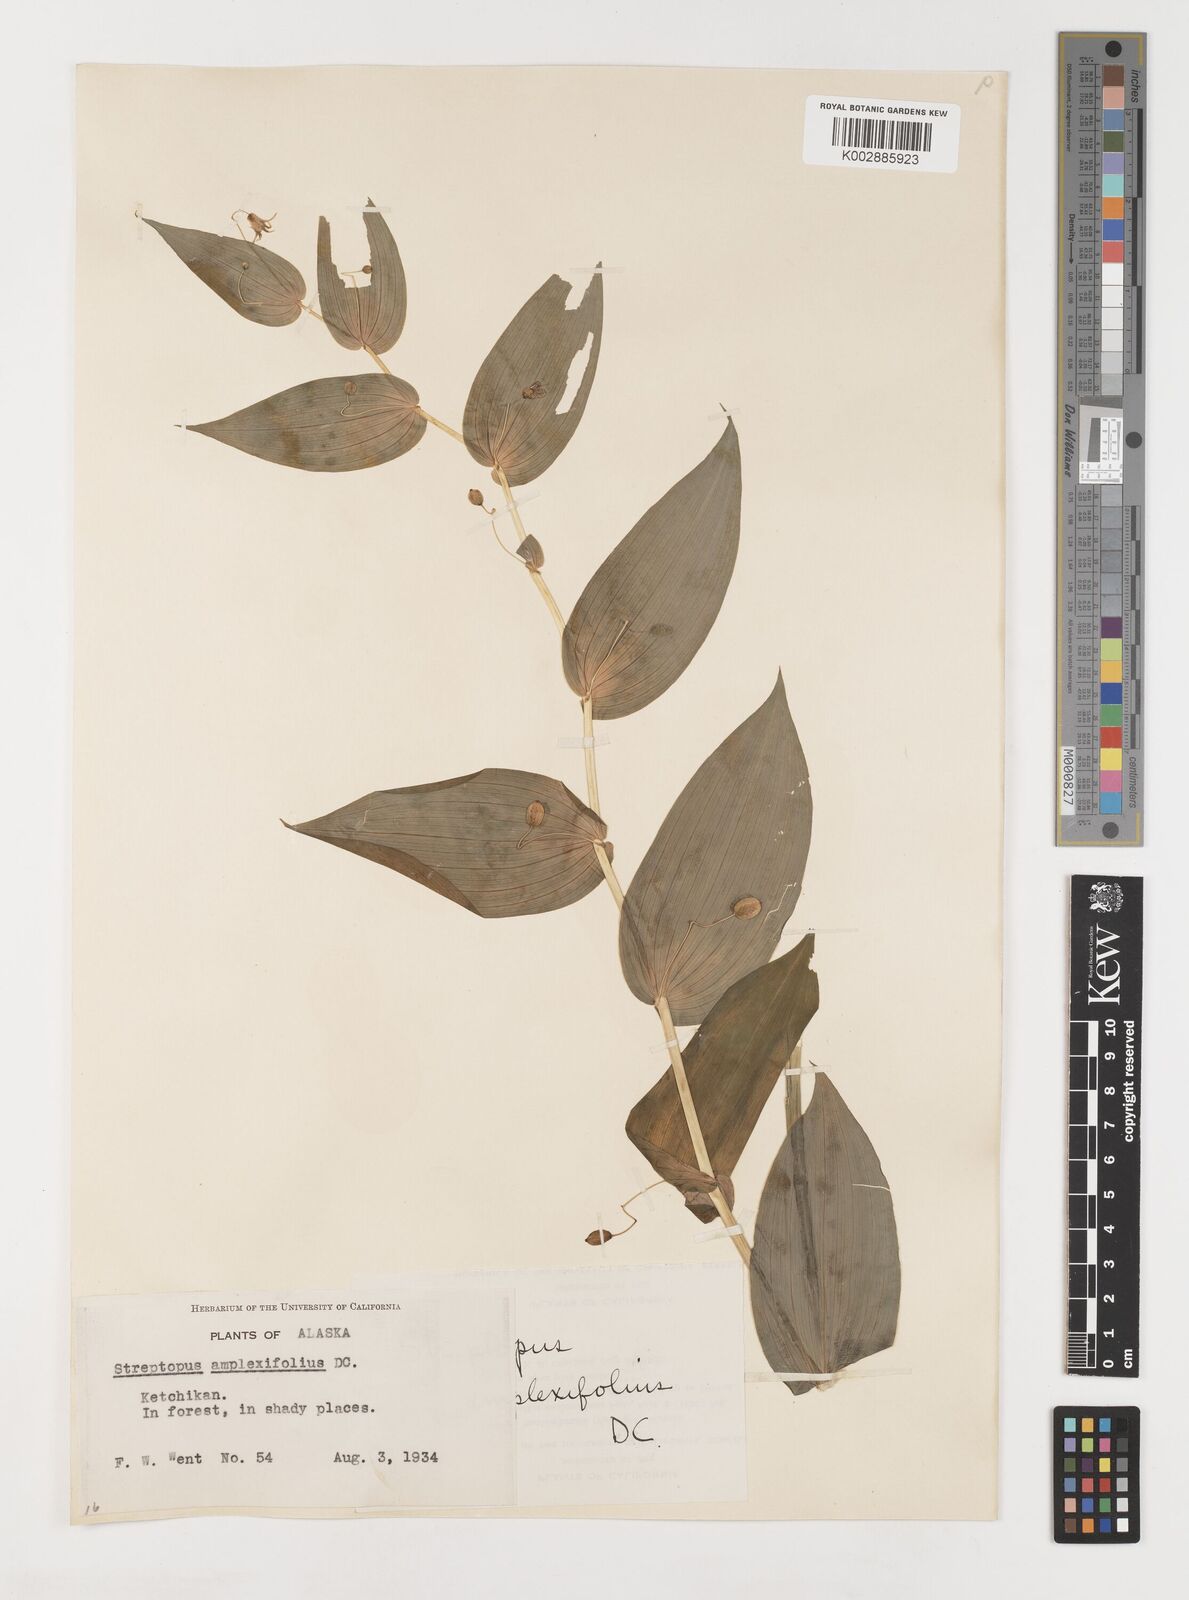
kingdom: Plantae
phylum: Tracheophyta
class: Liliopsida
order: Liliales
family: Liliaceae
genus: Streptopus
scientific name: Streptopus
